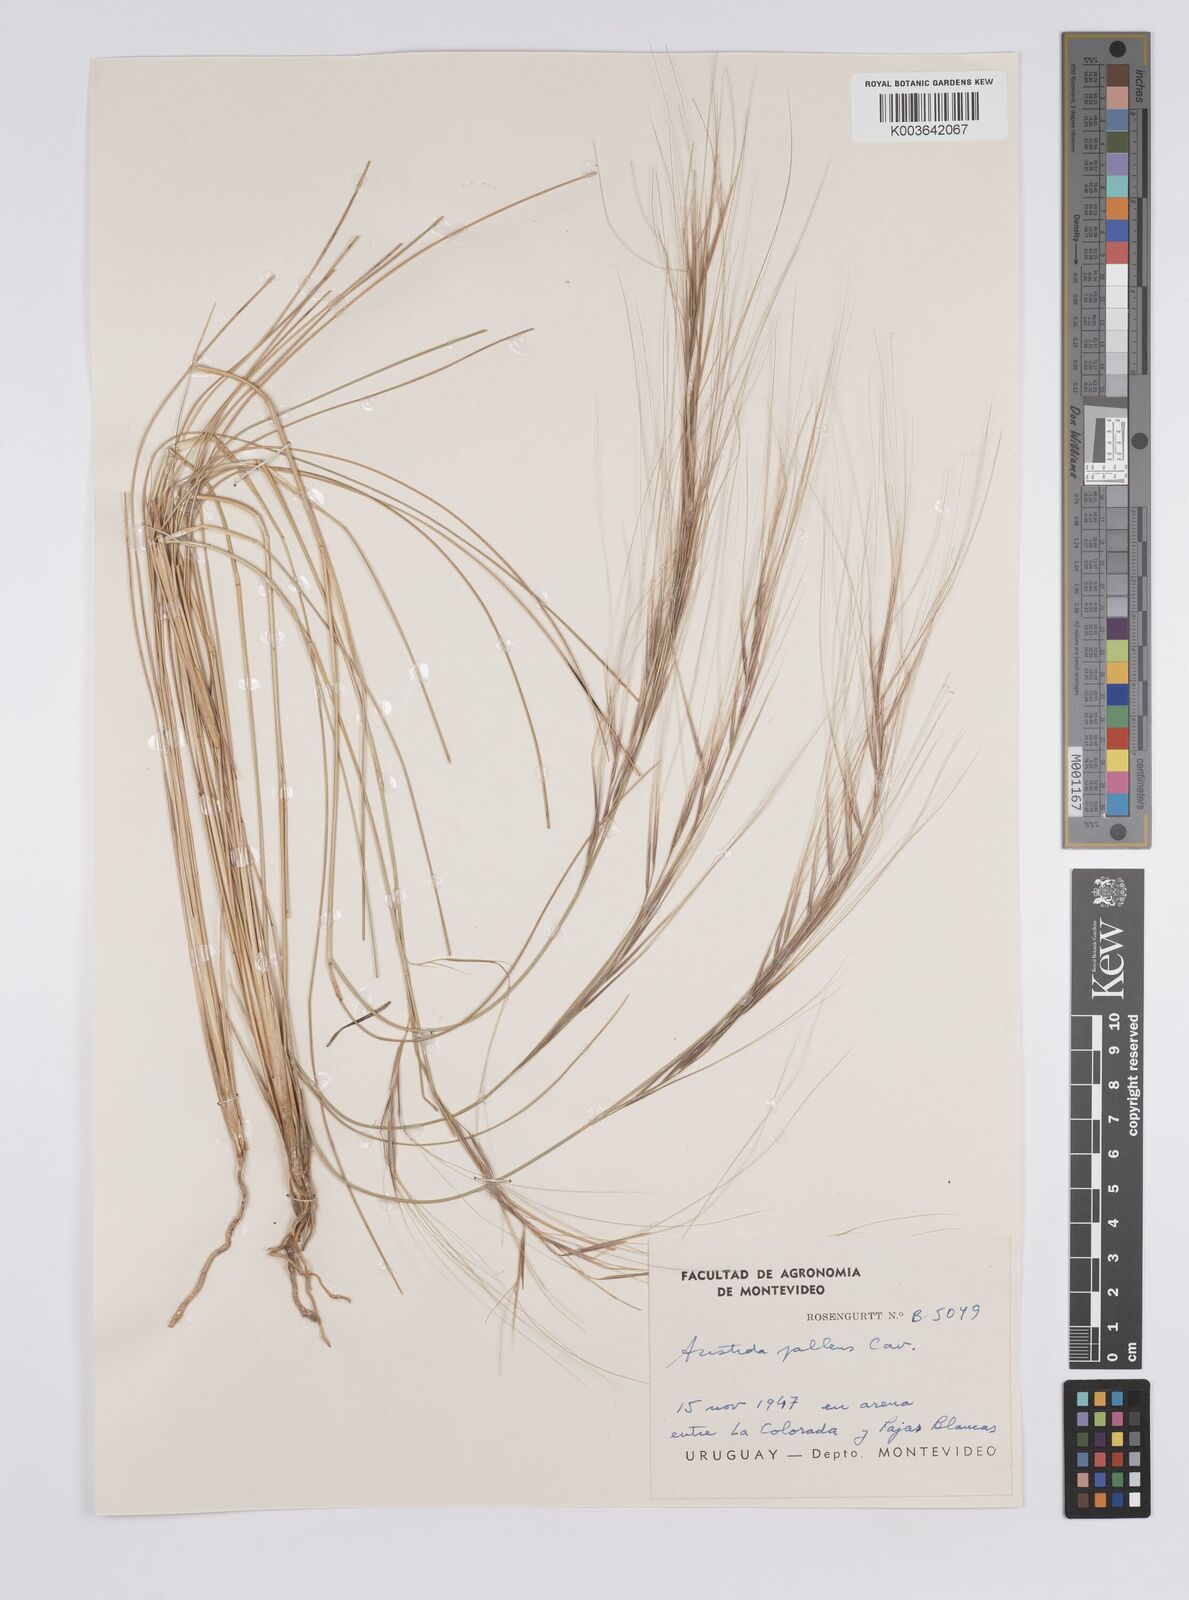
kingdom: Plantae
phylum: Tracheophyta
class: Liliopsida
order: Poales
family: Poaceae
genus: Aristida
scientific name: Aristida pallens
